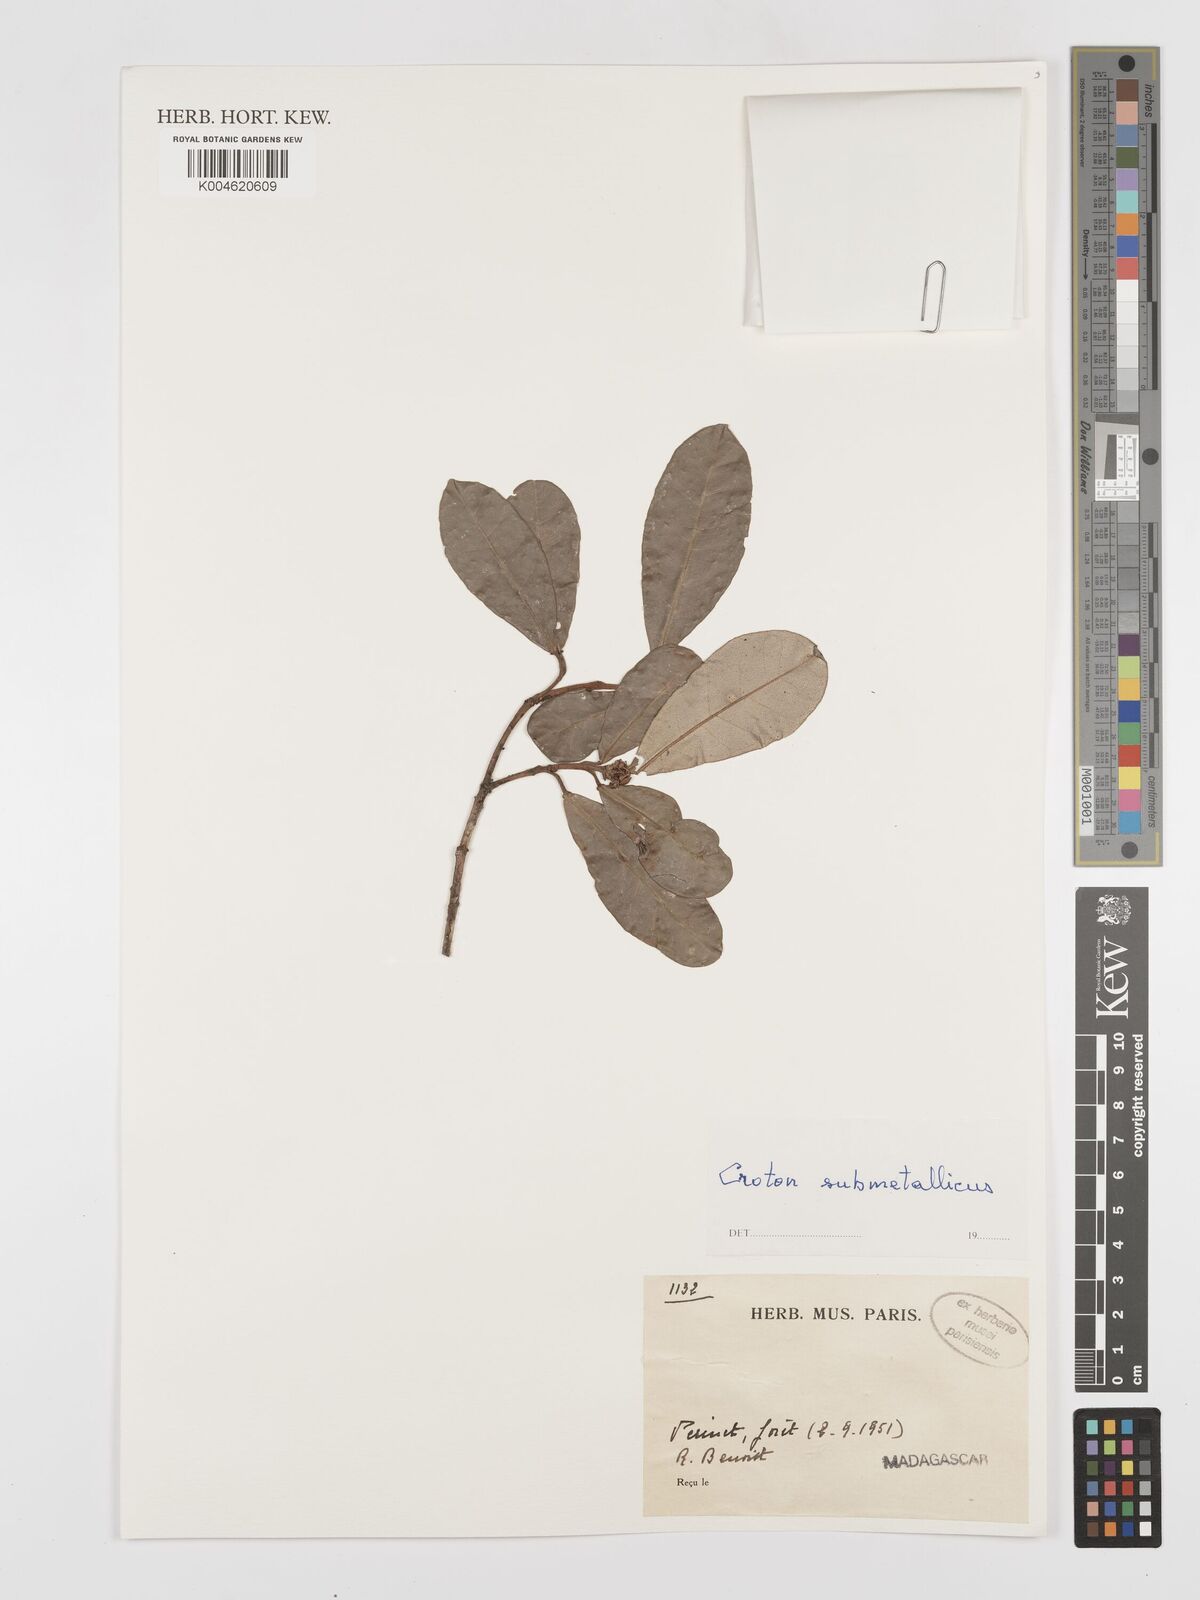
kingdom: Plantae
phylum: Tracheophyta
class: Magnoliopsida
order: Malpighiales
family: Euphorbiaceae
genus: Croton
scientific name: Croton submetallicus
